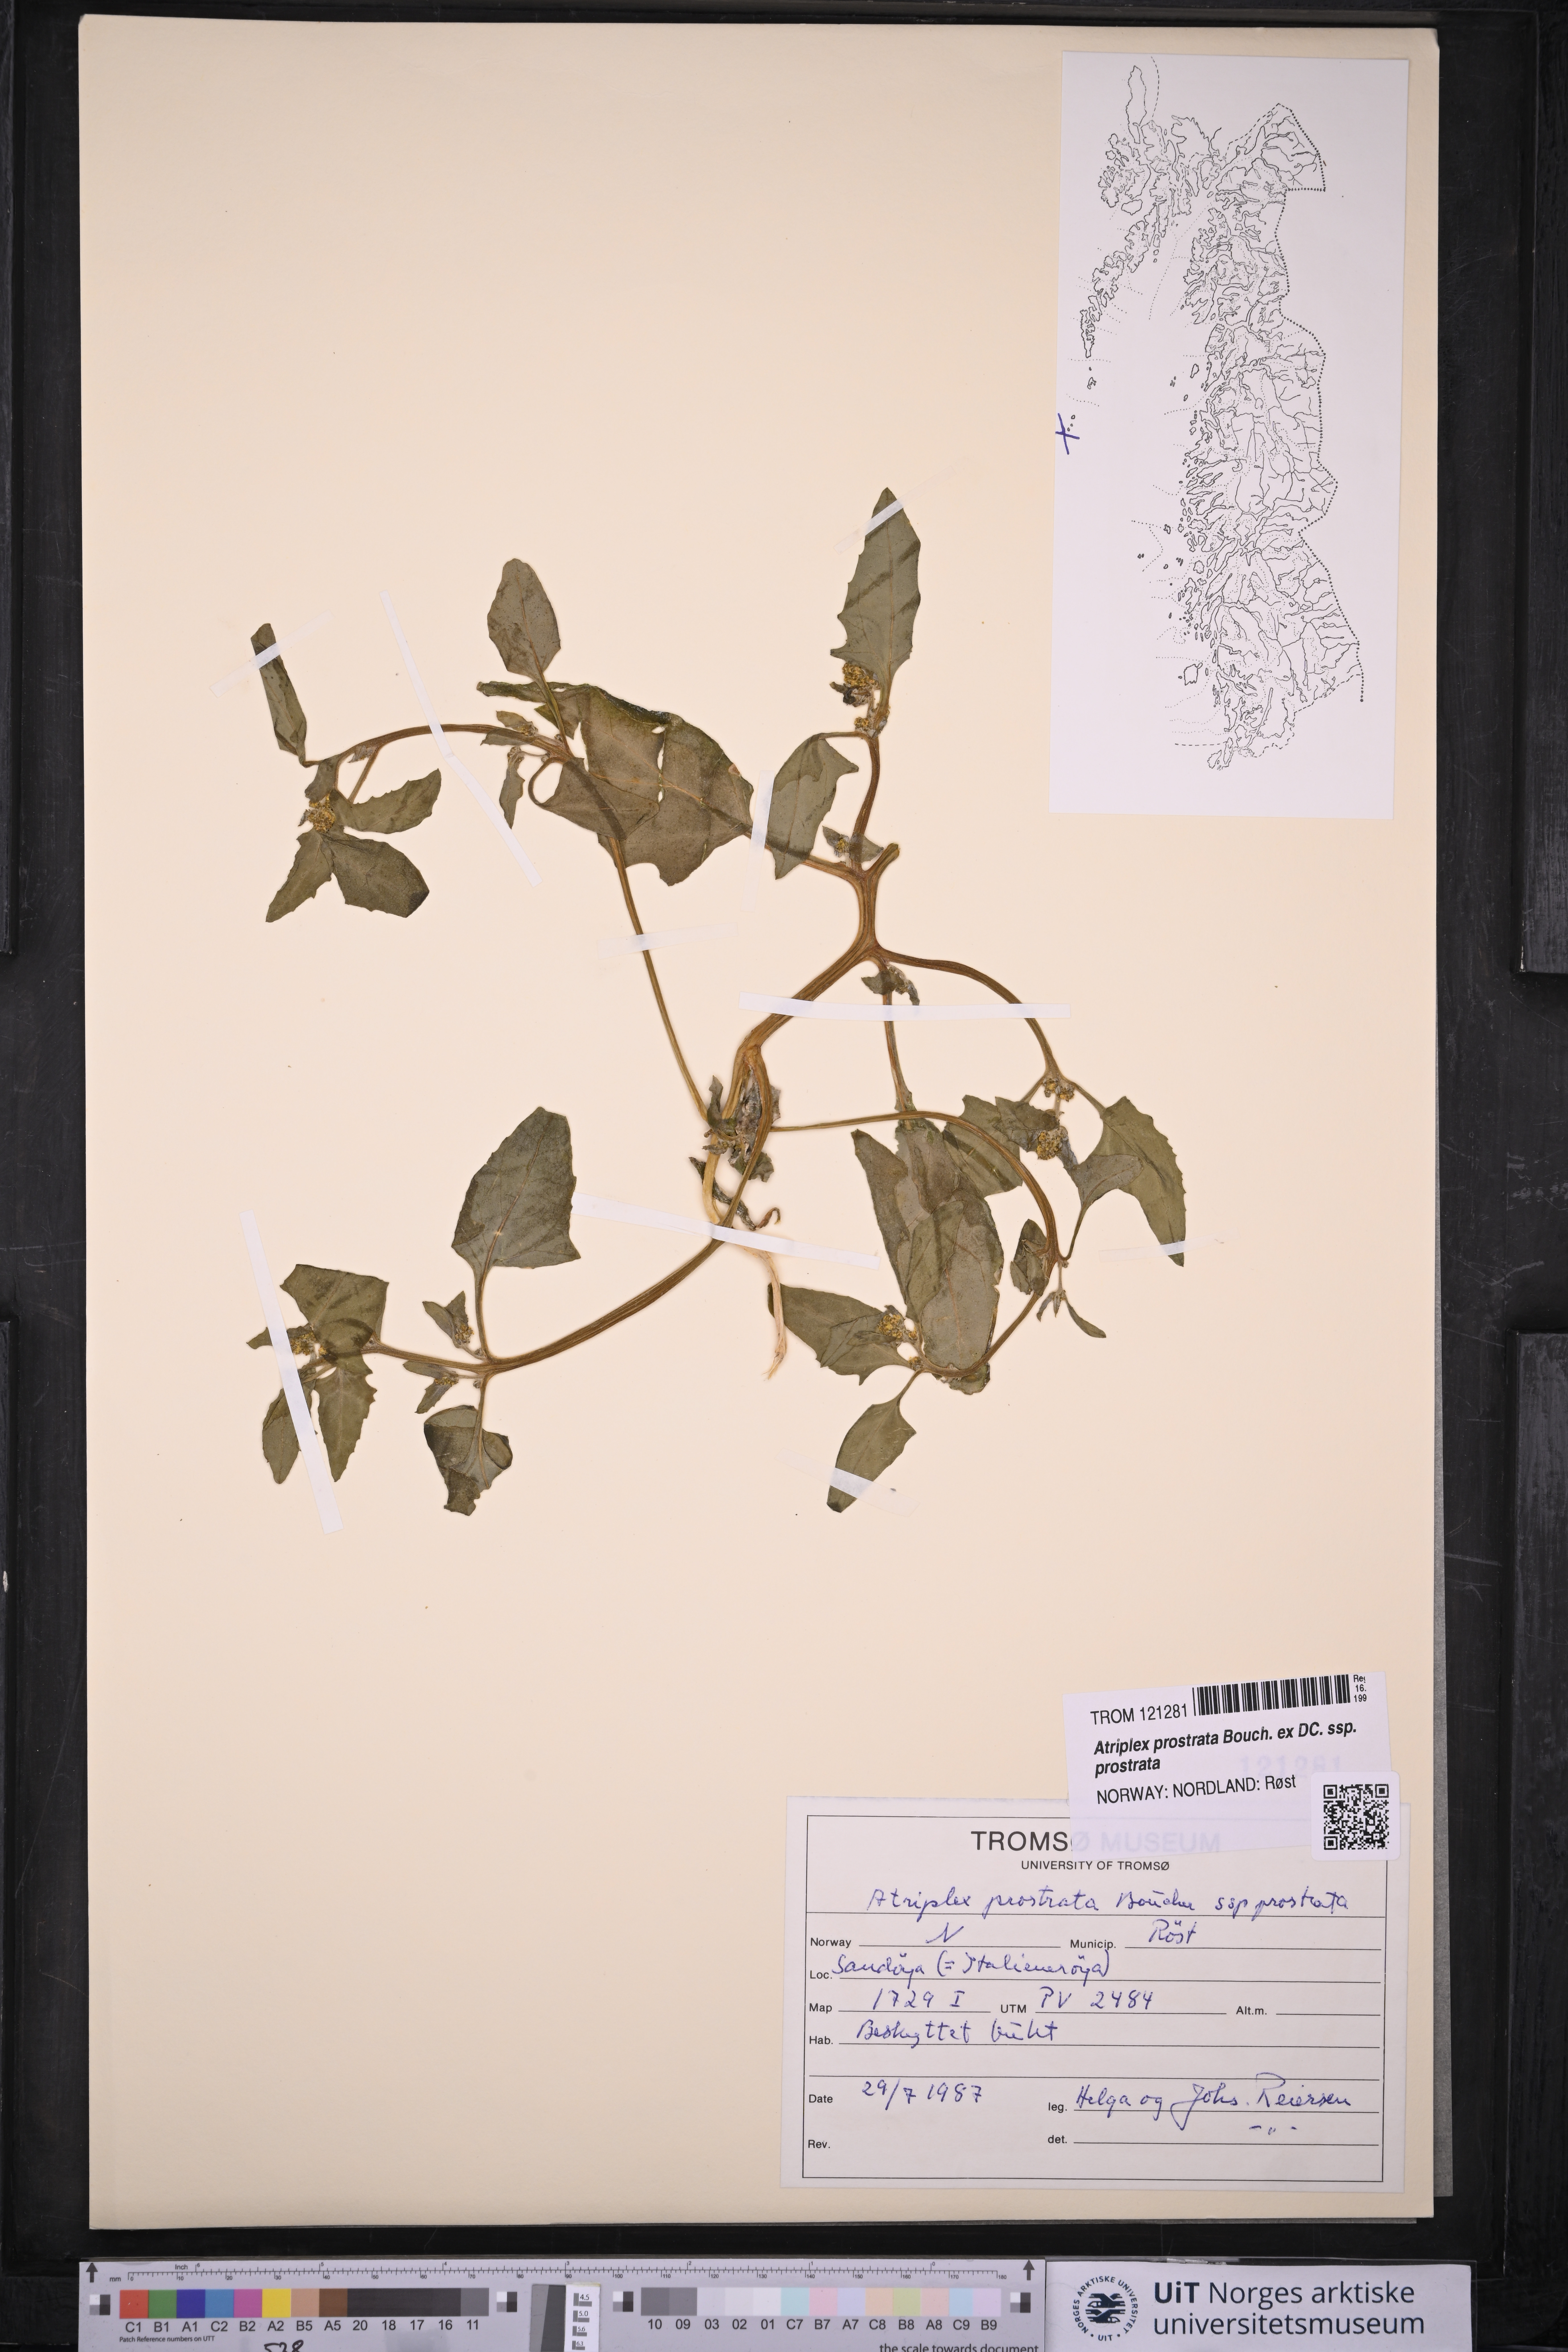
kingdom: Plantae
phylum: Tracheophyta
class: Magnoliopsida
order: Caryophyllales
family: Amaranthaceae
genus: Atriplex
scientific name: Atriplex prostrata
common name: Spear-leaved orache
